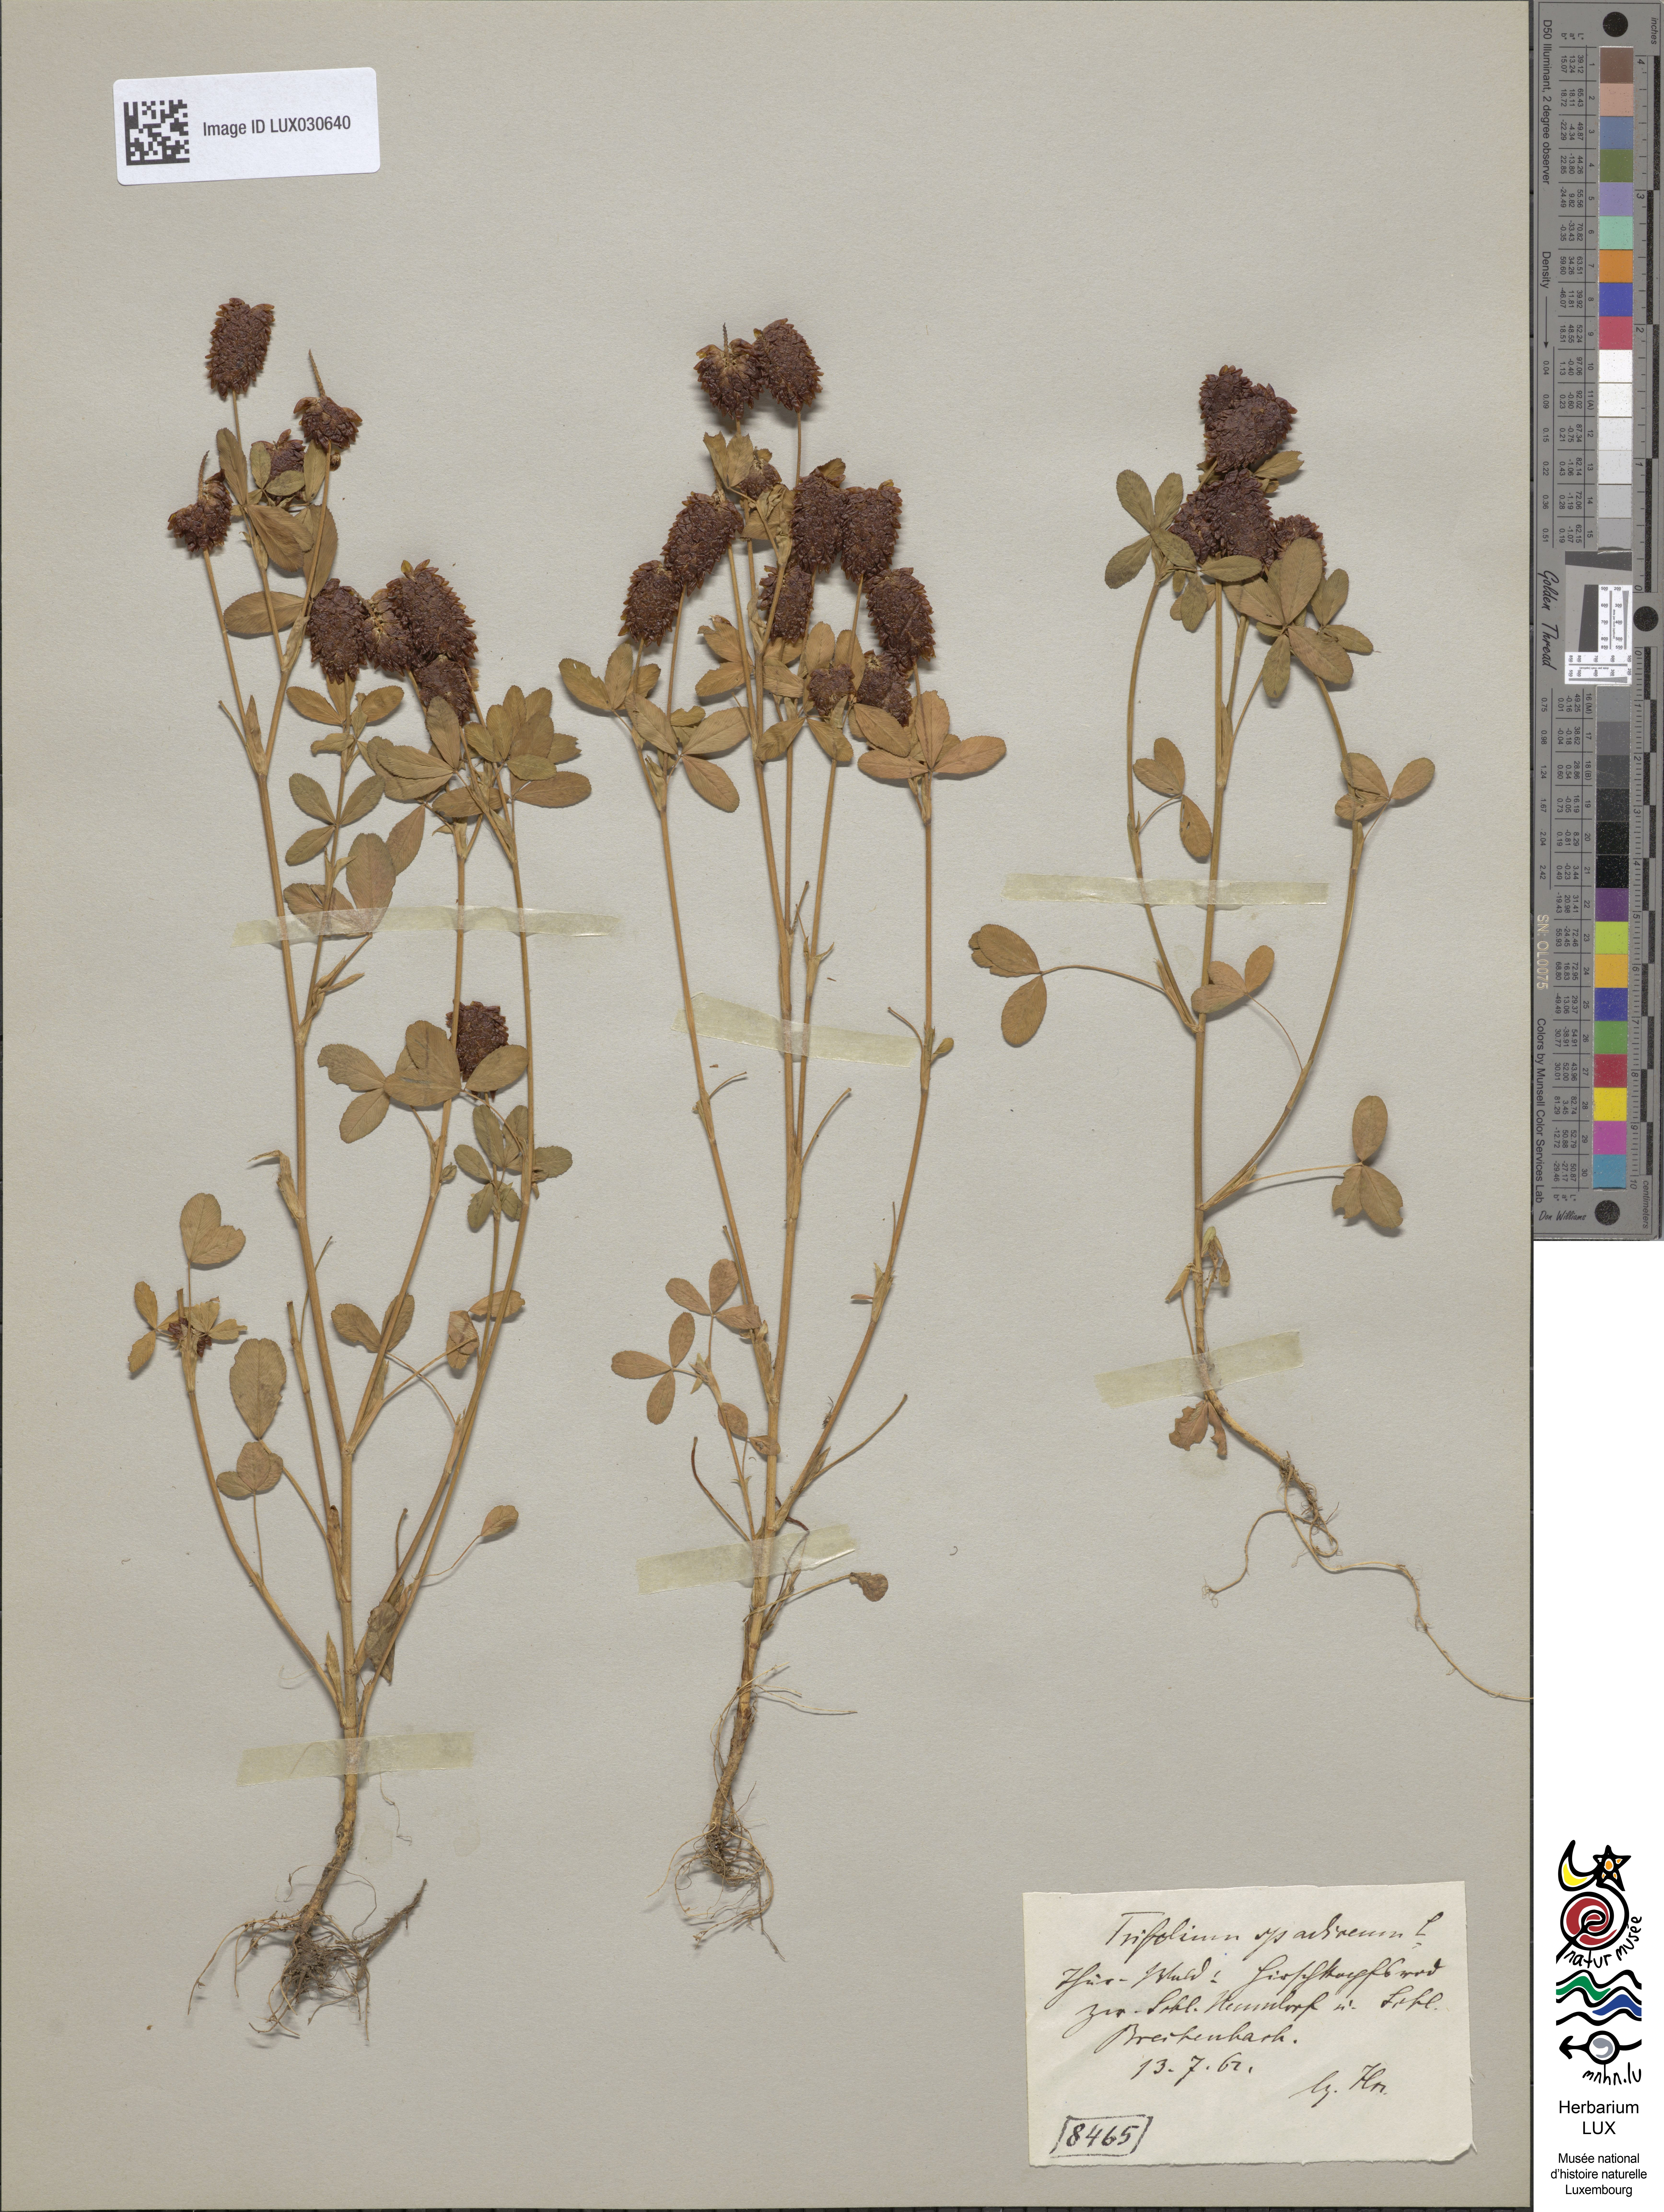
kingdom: Plantae
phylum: Tracheophyta
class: Magnoliopsida
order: Fabales
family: Fabaceae
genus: Trifolium
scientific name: Trifolium spadiceum
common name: Brown moor clover
